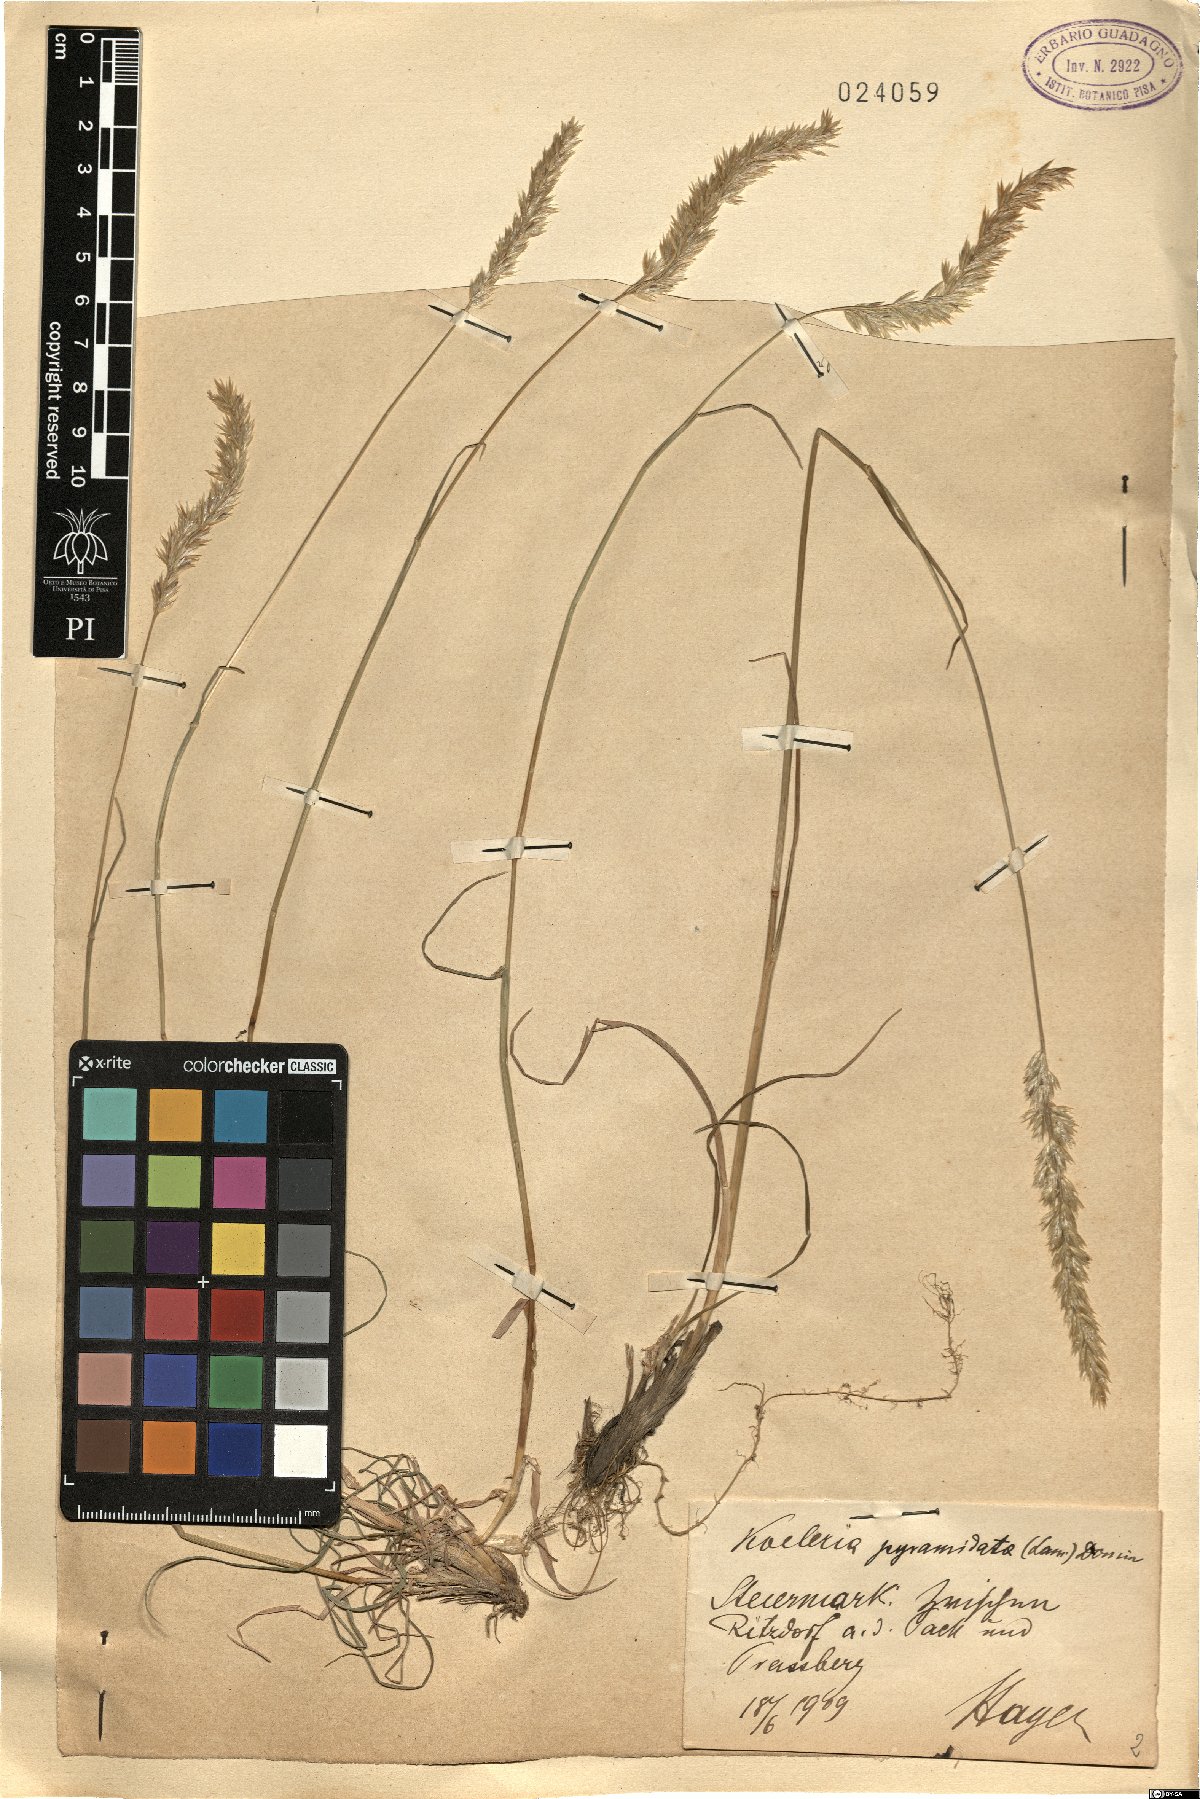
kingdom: Plantae
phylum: Tracheophyta
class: Liliopsida
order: Poales
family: Poaceae
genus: Koeleria
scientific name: Koeleria pyramidata
